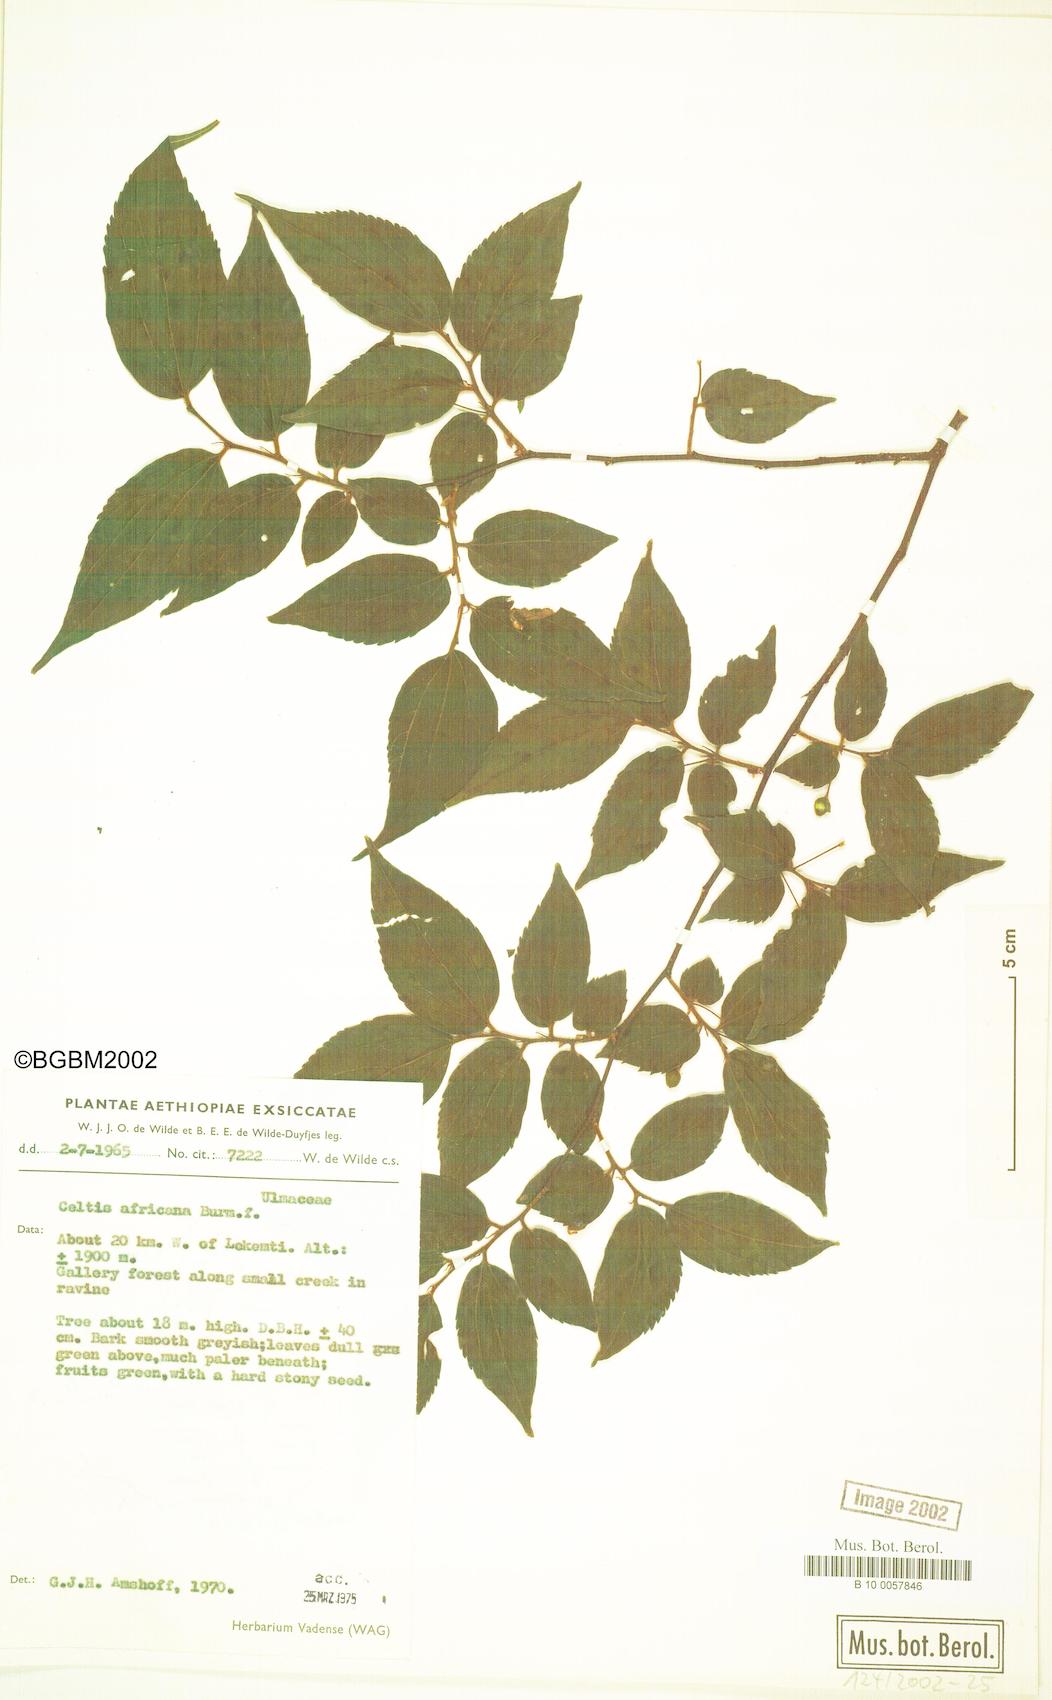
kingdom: Plantae
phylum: Tracheophyta
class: Magnoliopsida
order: Rosales
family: Cannabaceae
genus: Celtis
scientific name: Celtis africana
